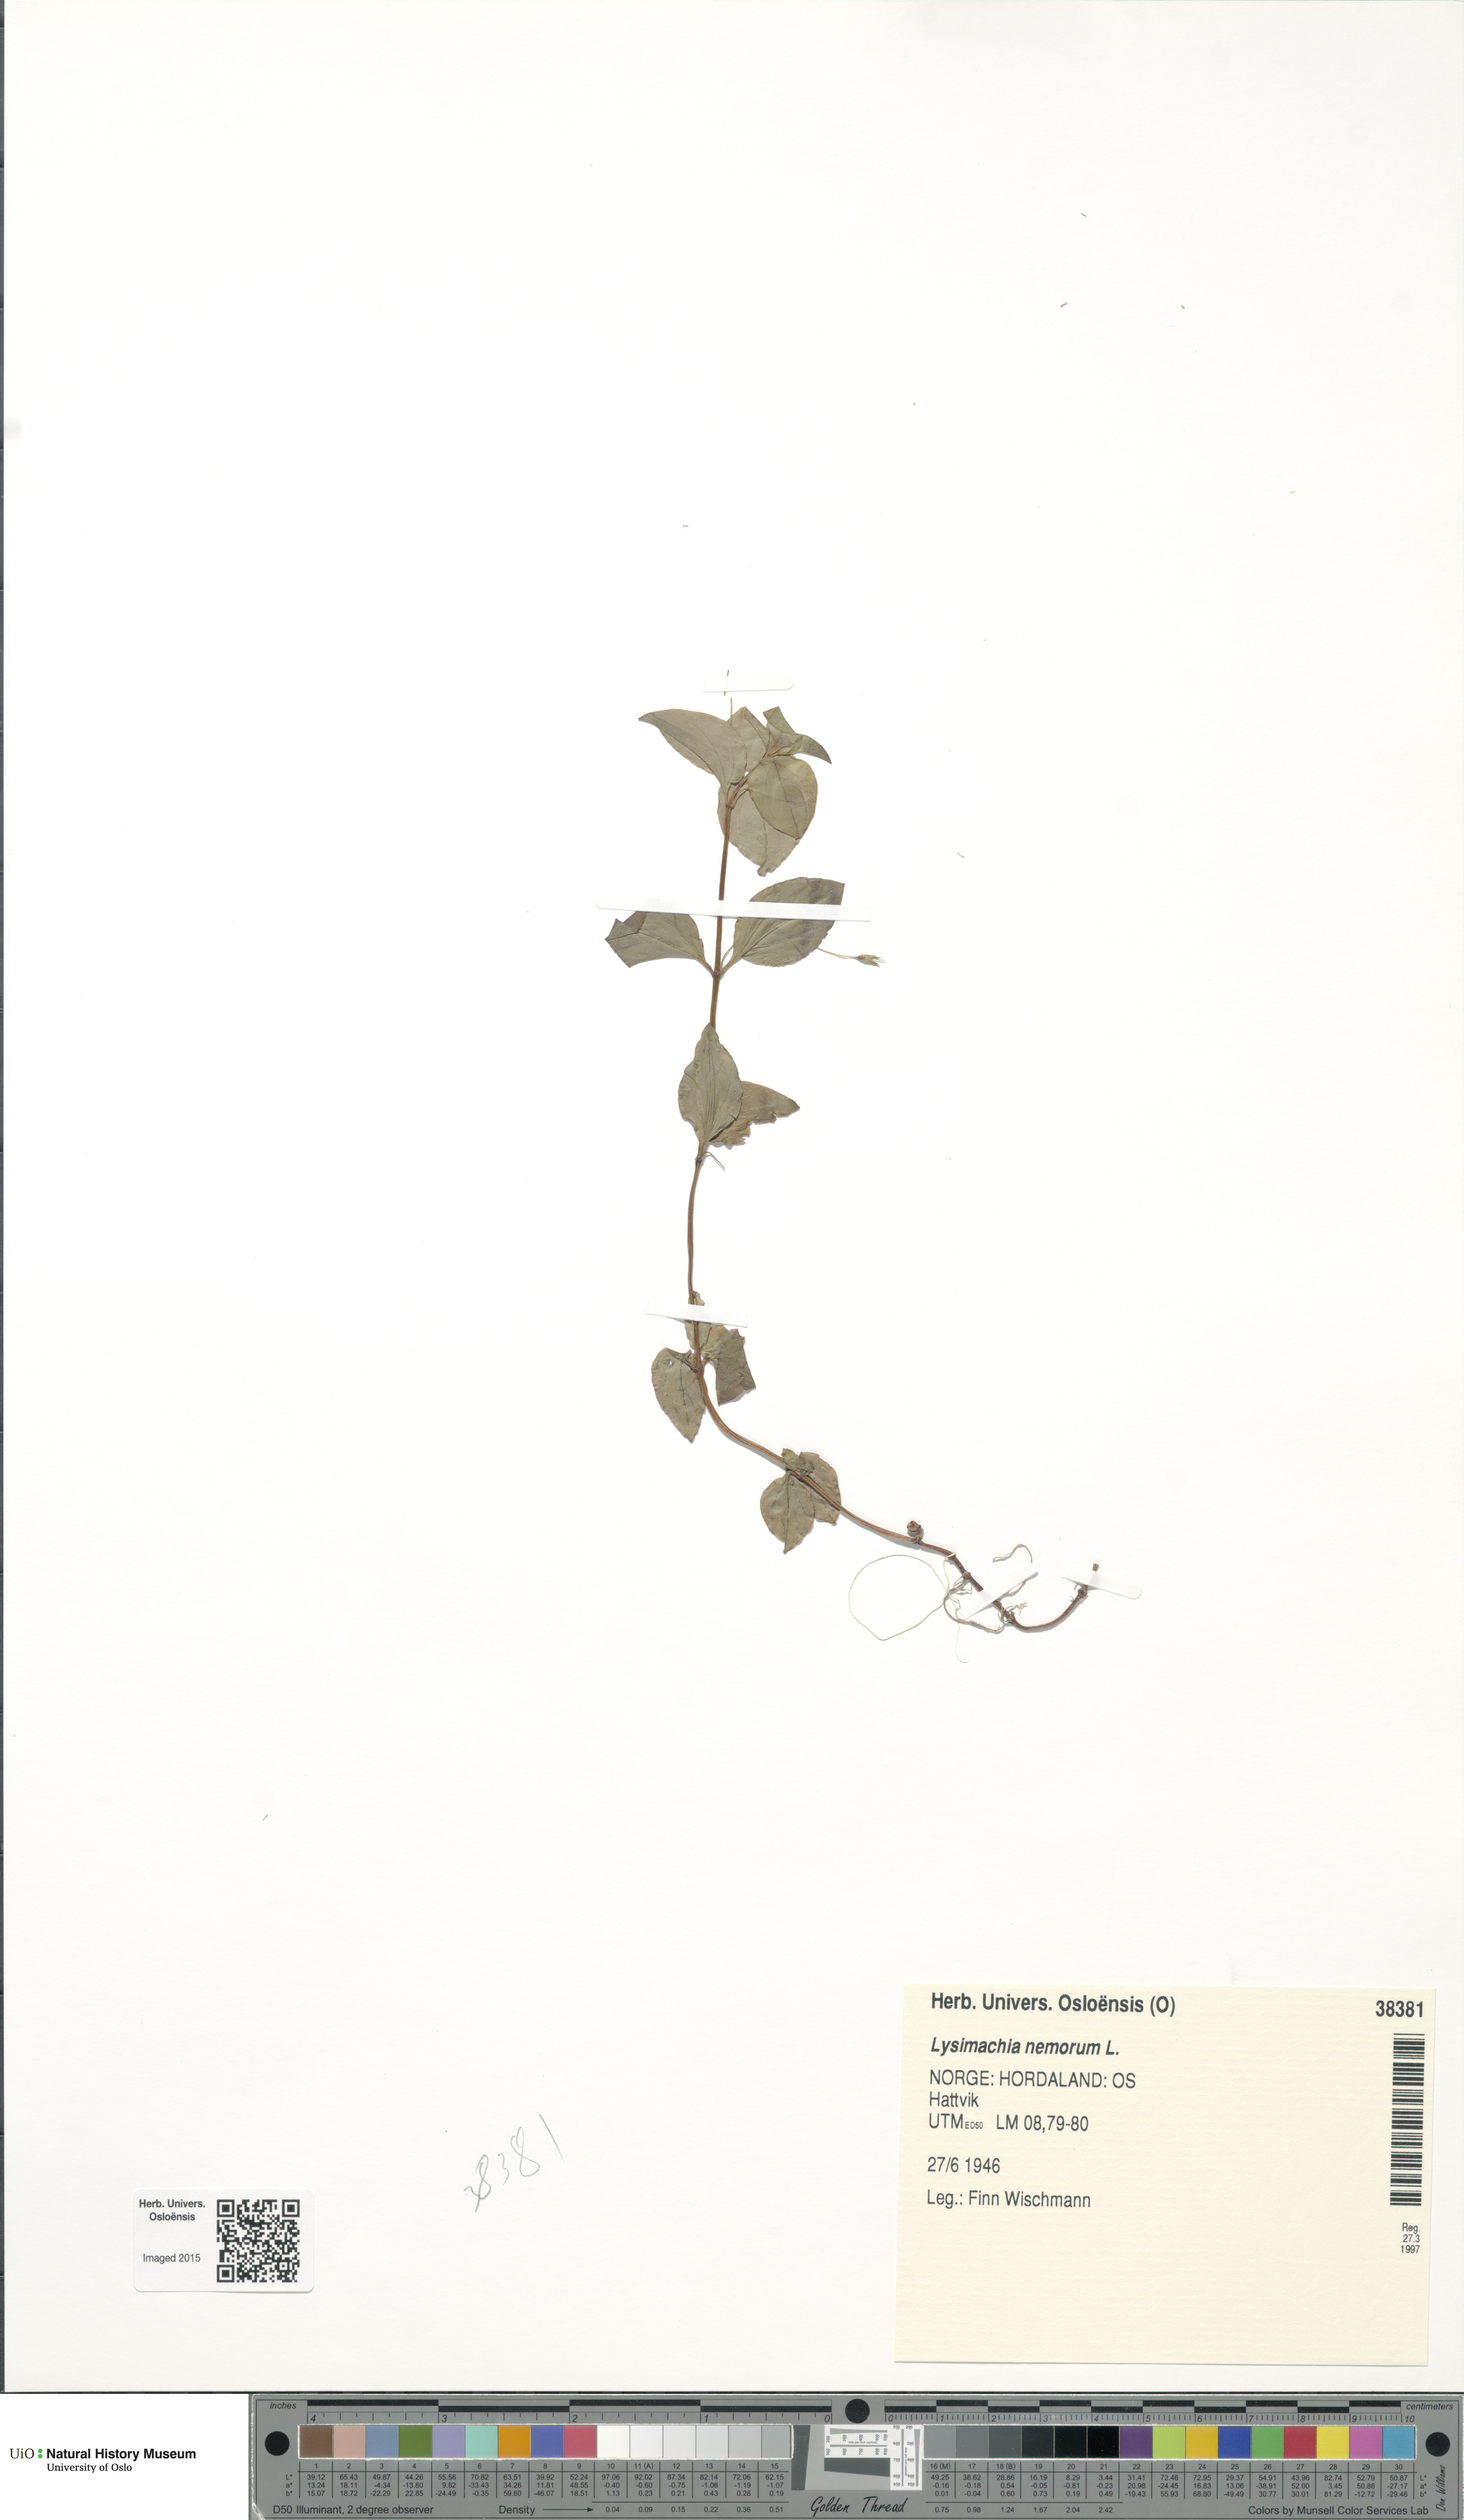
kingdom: Plantae
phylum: Tracheophyta
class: Magnoliopsida
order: Ericales
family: Primulaceae
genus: Lysimachia
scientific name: Lysimachia nemorum
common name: Yellow pimpernel
